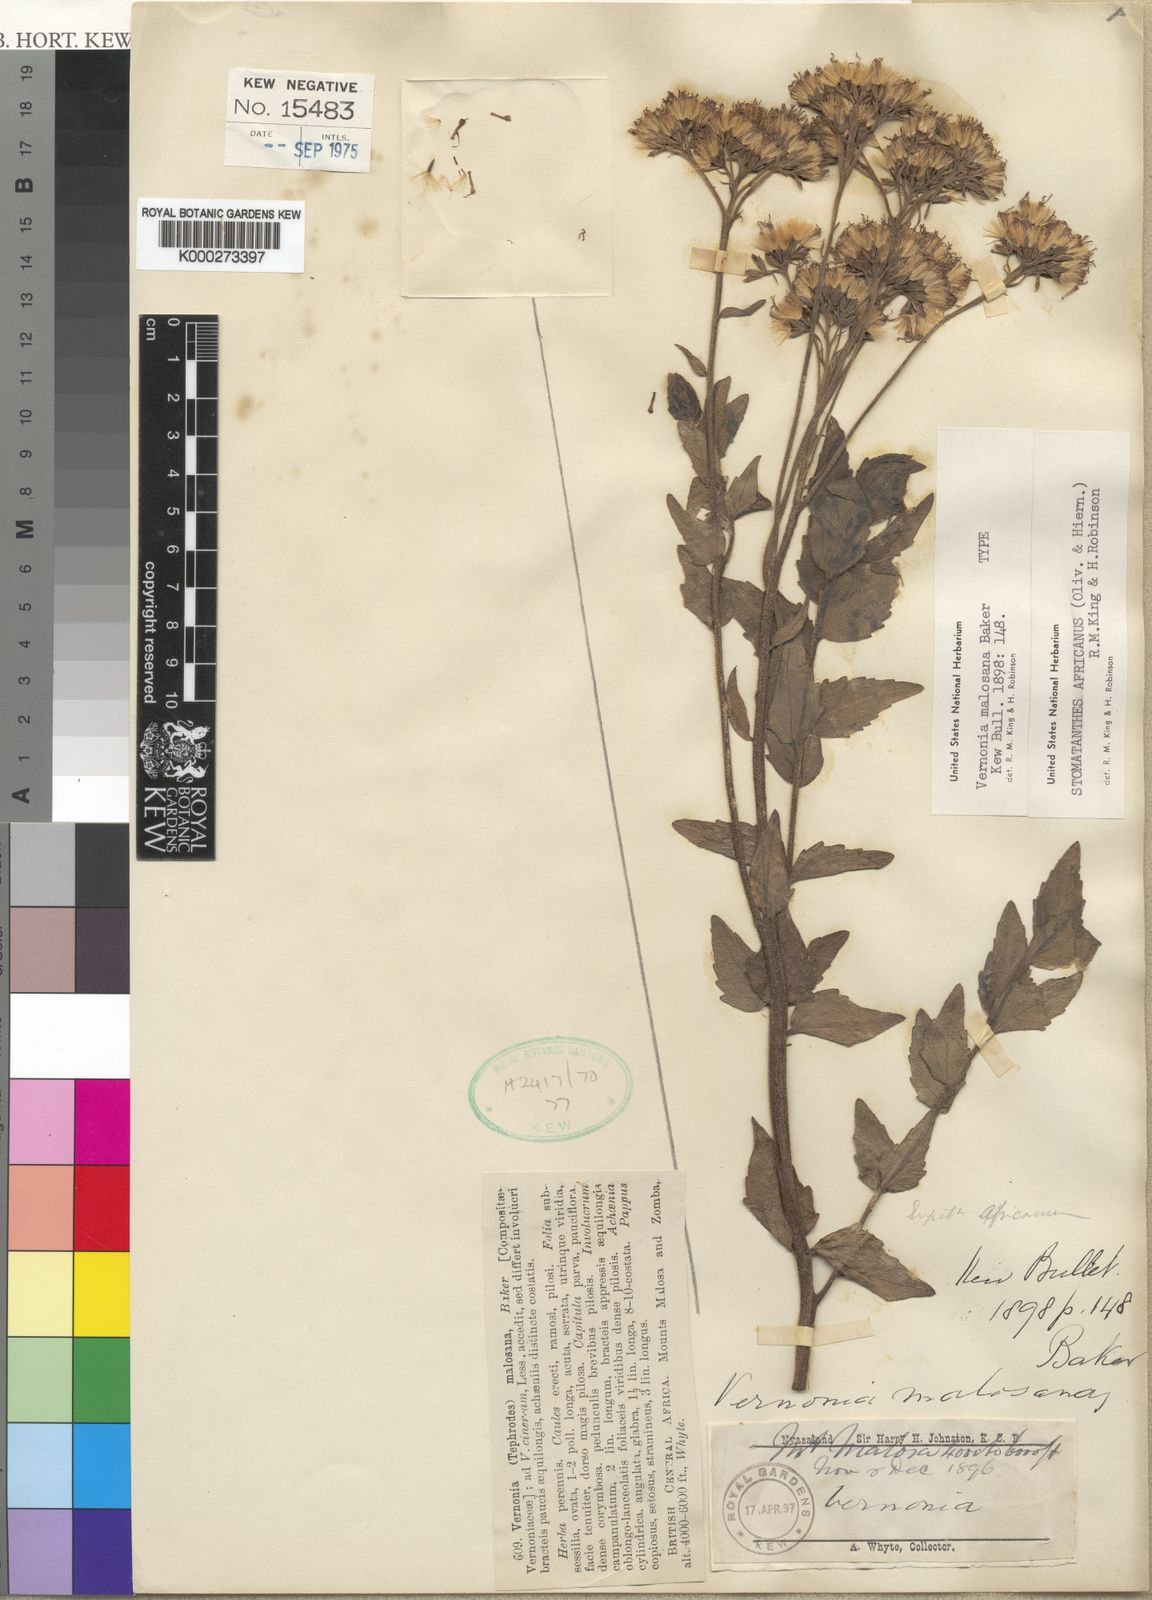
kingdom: Plantae
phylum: Tracheophyta
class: Magnoliopsida
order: Asterales
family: Asteraceae
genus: Stomatanthes
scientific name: Stomatanthes africanus
